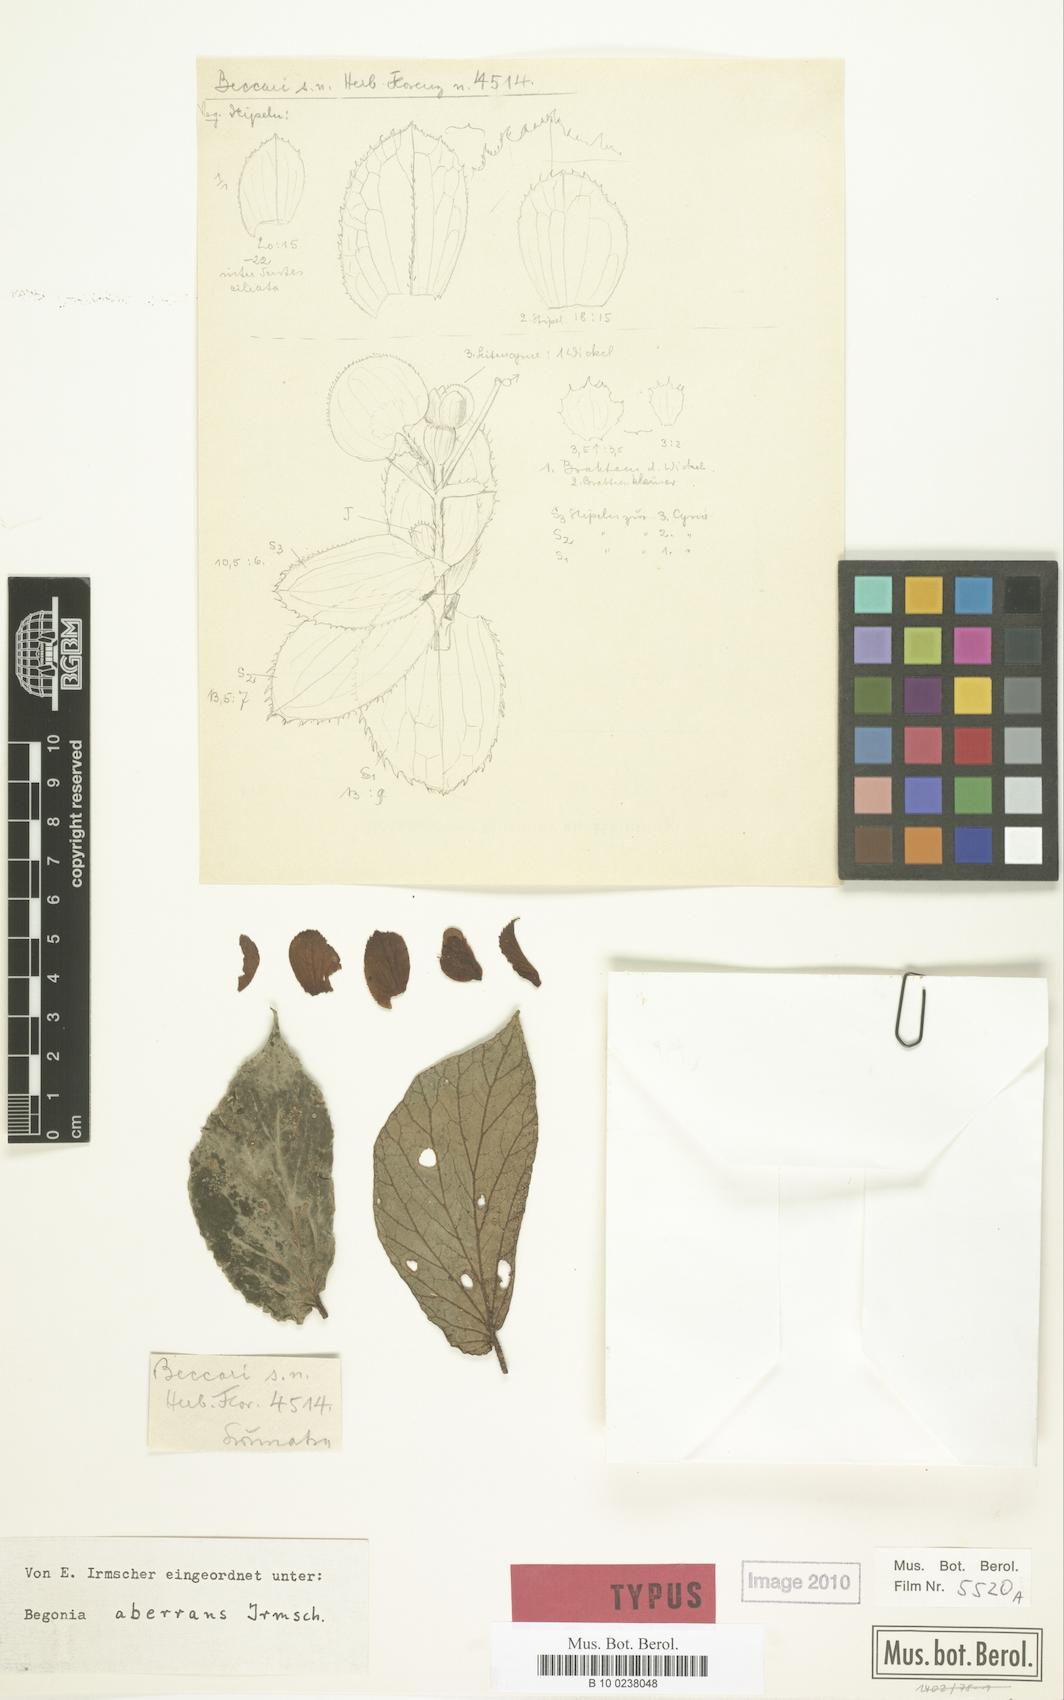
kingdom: Plantae
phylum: Tracheophyta
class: Magnoliopsida
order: Cucurbitales
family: Begoniaceae
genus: Begonia
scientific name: Begonia aberrans
